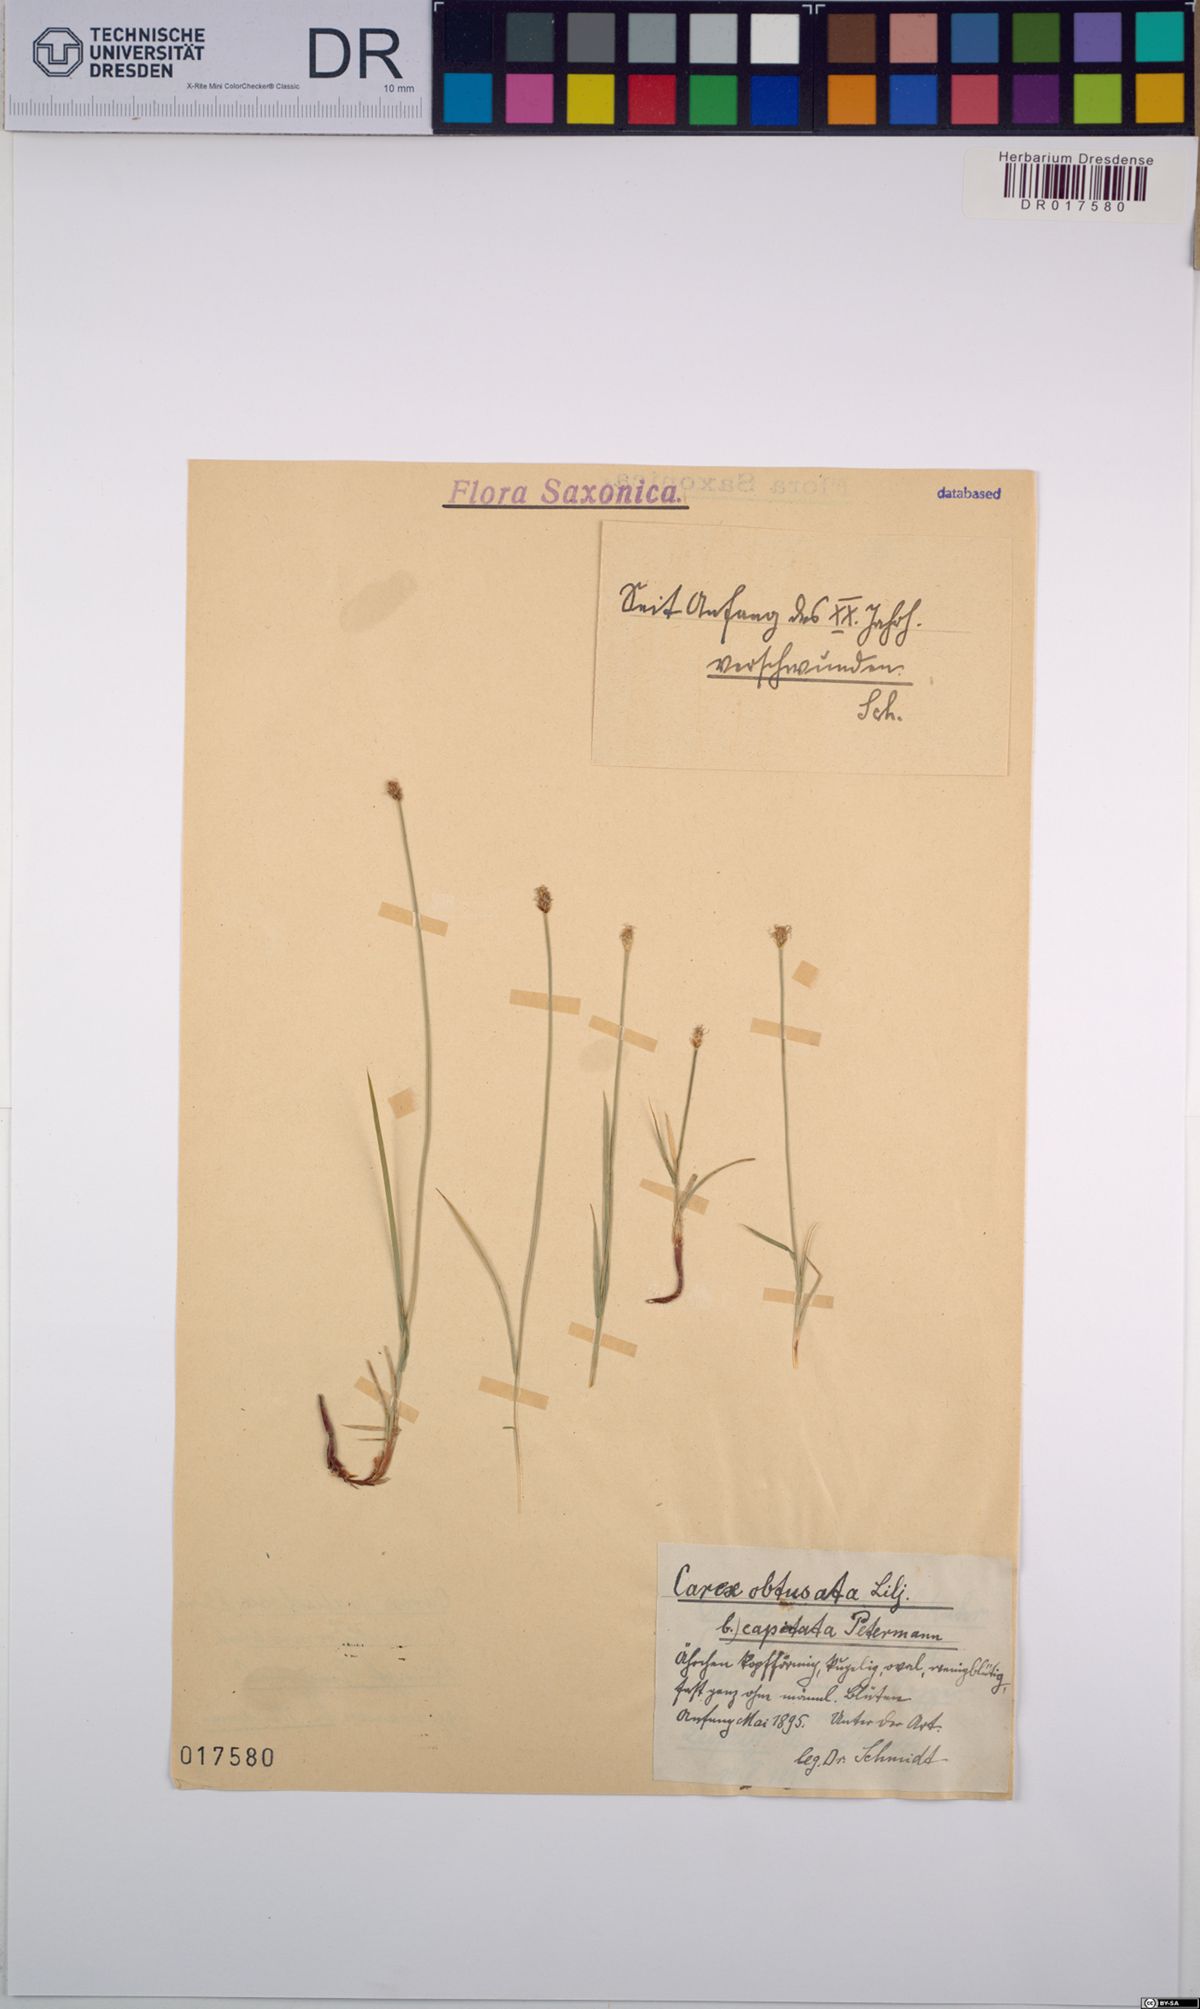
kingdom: Plantae
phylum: Tracheophyta
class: Liliopsida
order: Poales
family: Cyperaceae
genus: Carex
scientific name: Carex obtusata
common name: Blunt sedge
